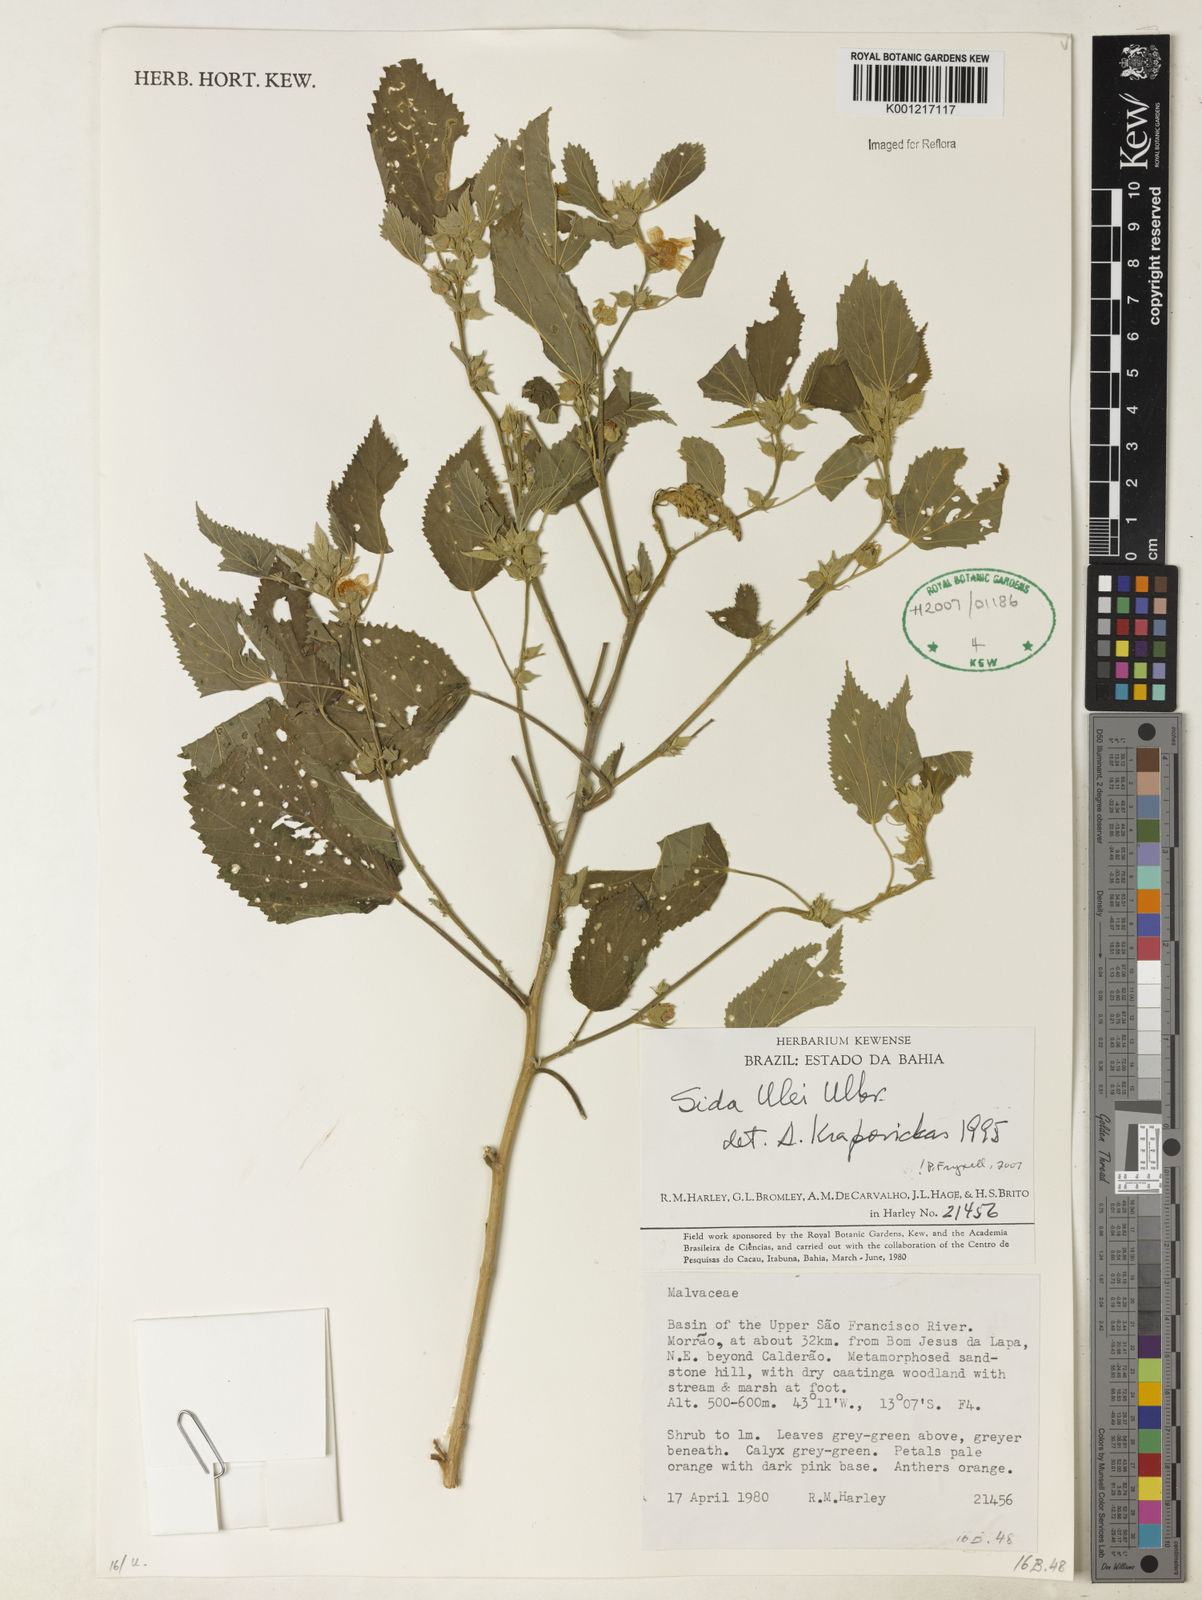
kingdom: Plantae
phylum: Tracheophyta
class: Magnoliopsida
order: Malvales
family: Malvaceae
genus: Sida
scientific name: Sida ulei
